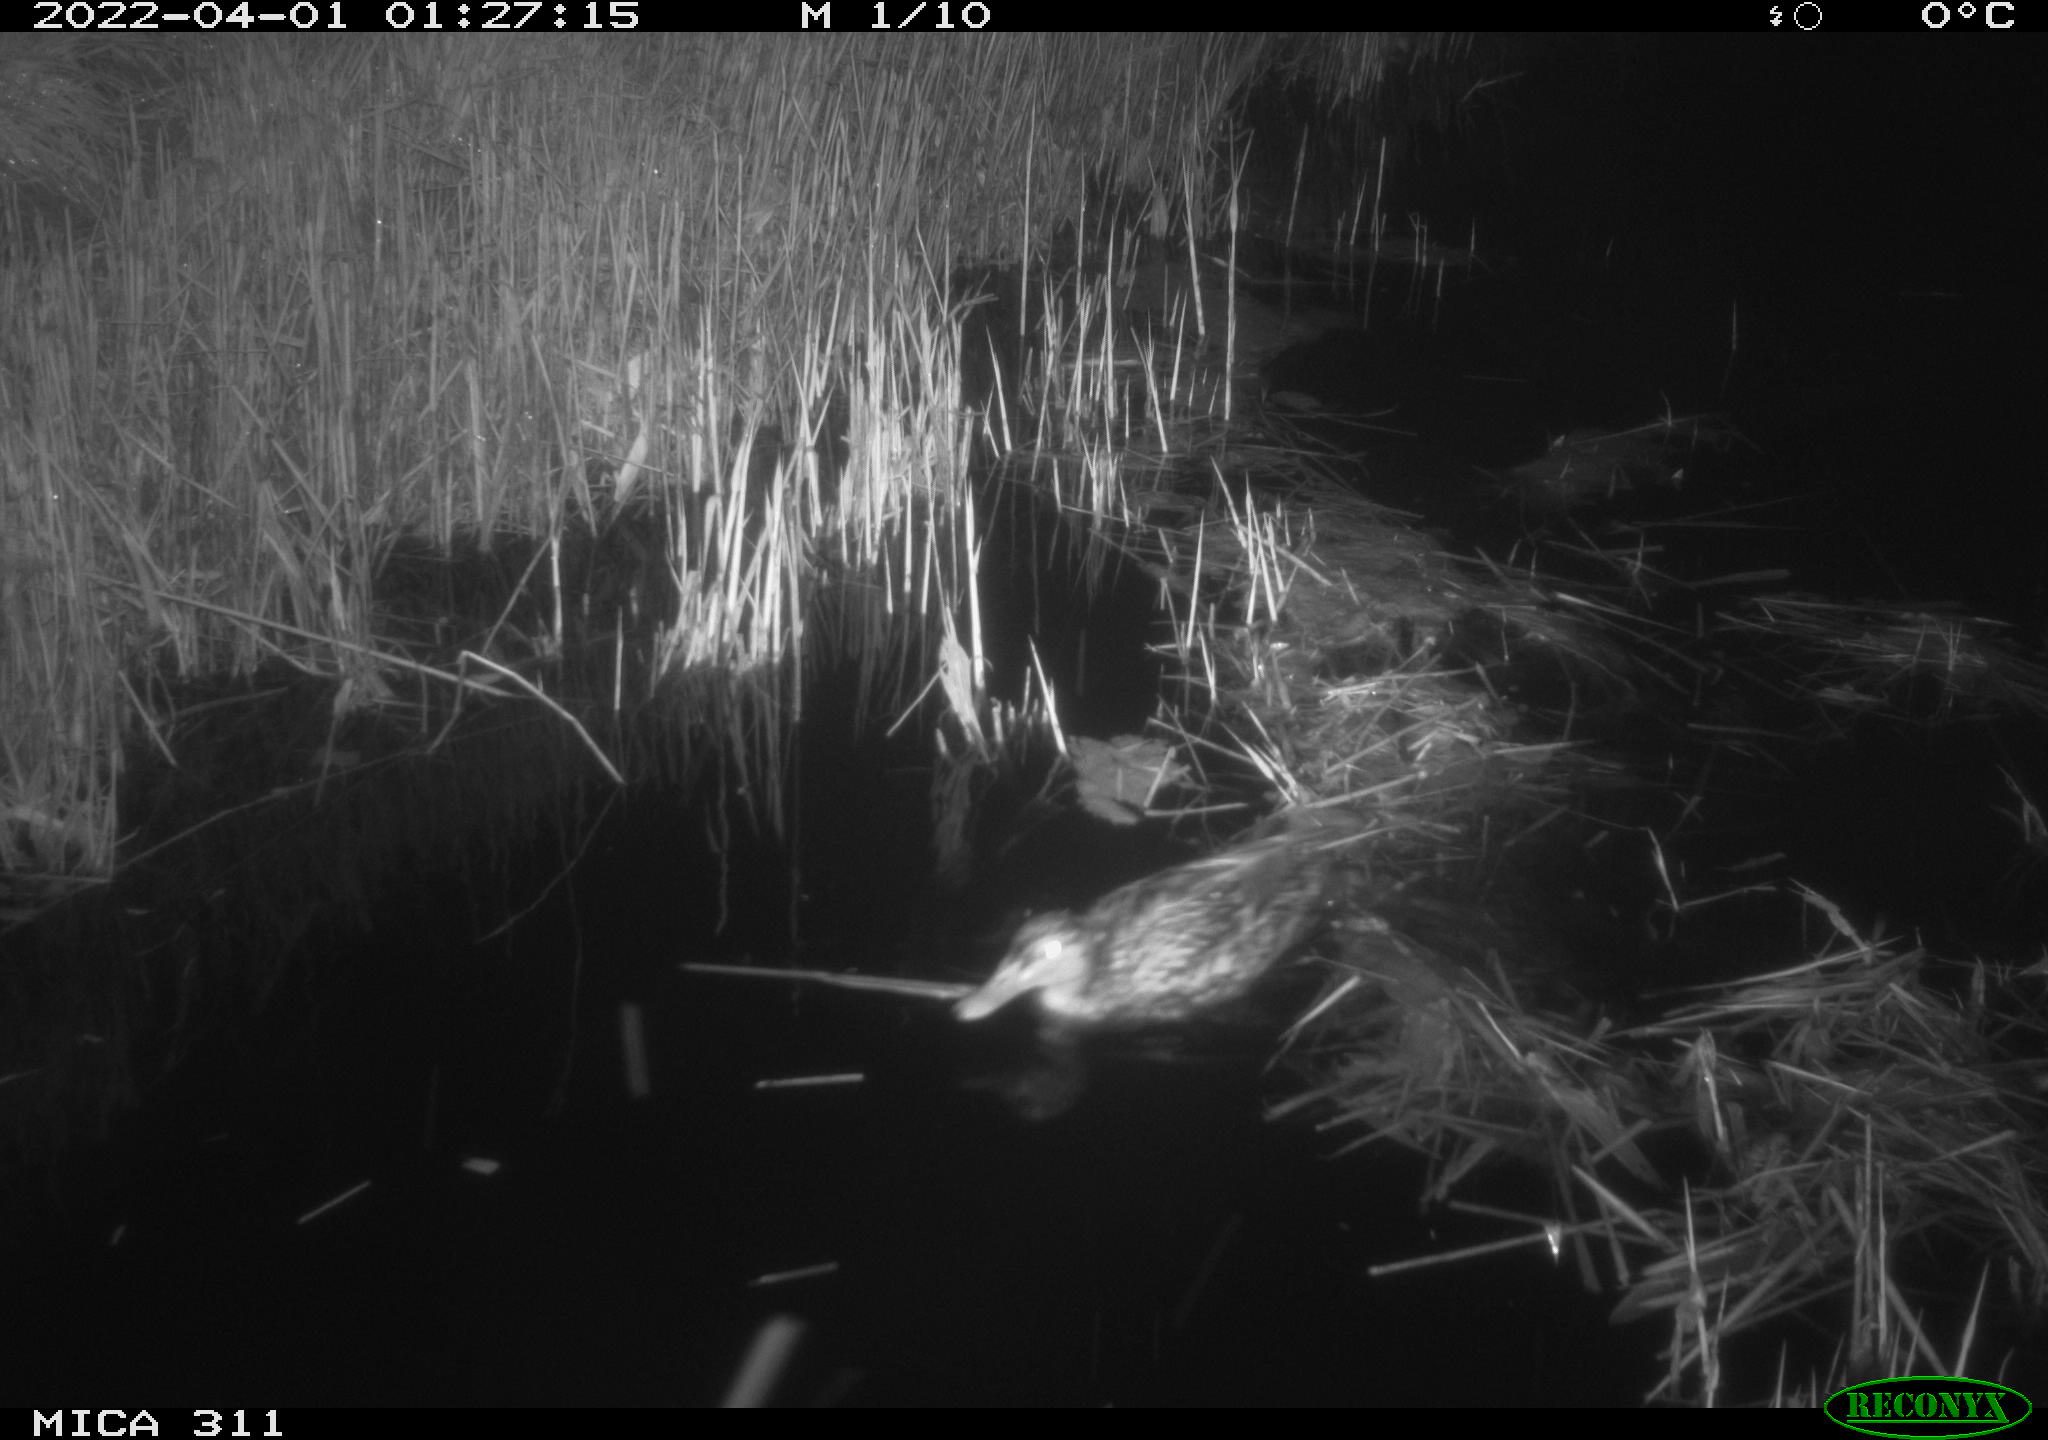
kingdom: Animalia
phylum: Chordata
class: Aves
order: Anseriformes
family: Anatidae
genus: Anas
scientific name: Anas platyrhynchos
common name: Mallard
